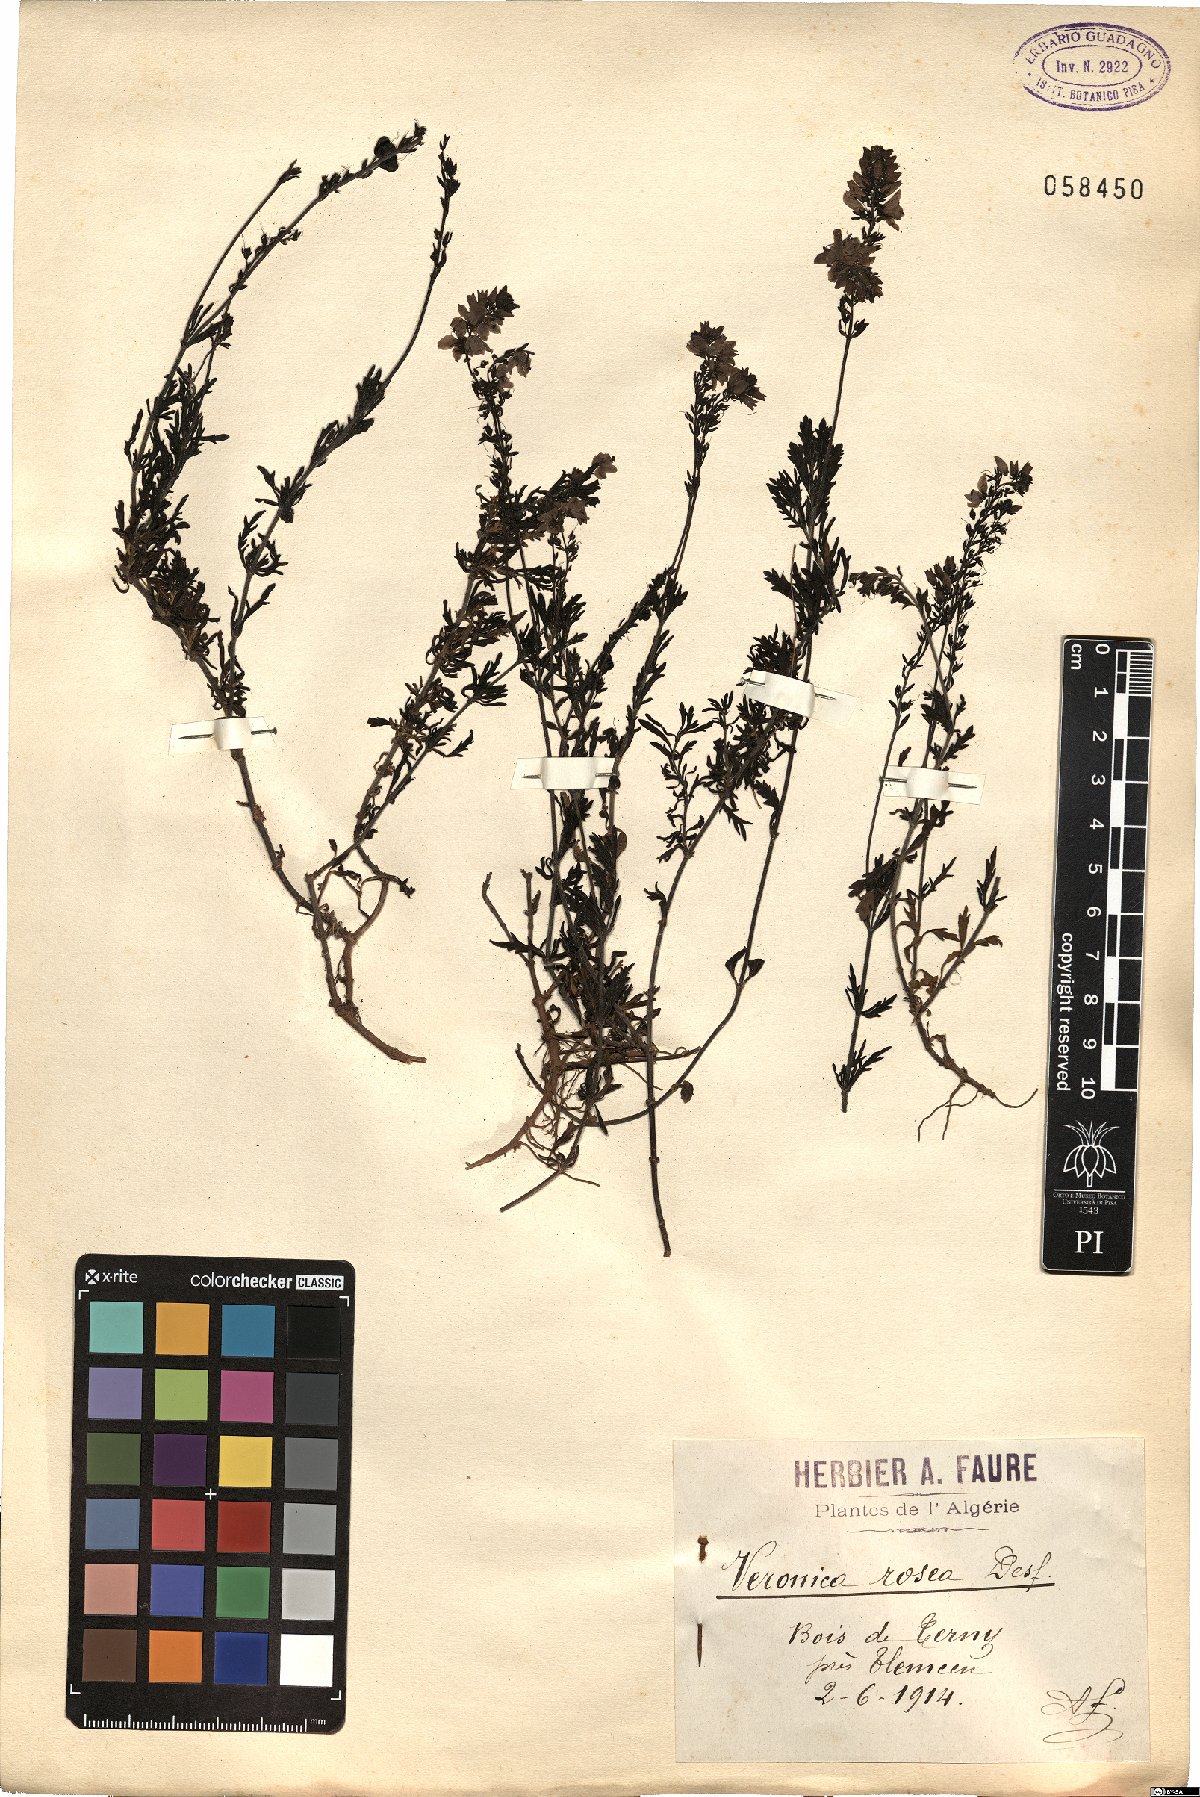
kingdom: Plantae
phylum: Tracheophyta
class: Magnoliopsida
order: Lamiales
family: Plantaginaceae
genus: Veronica
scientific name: Veronica rosea
